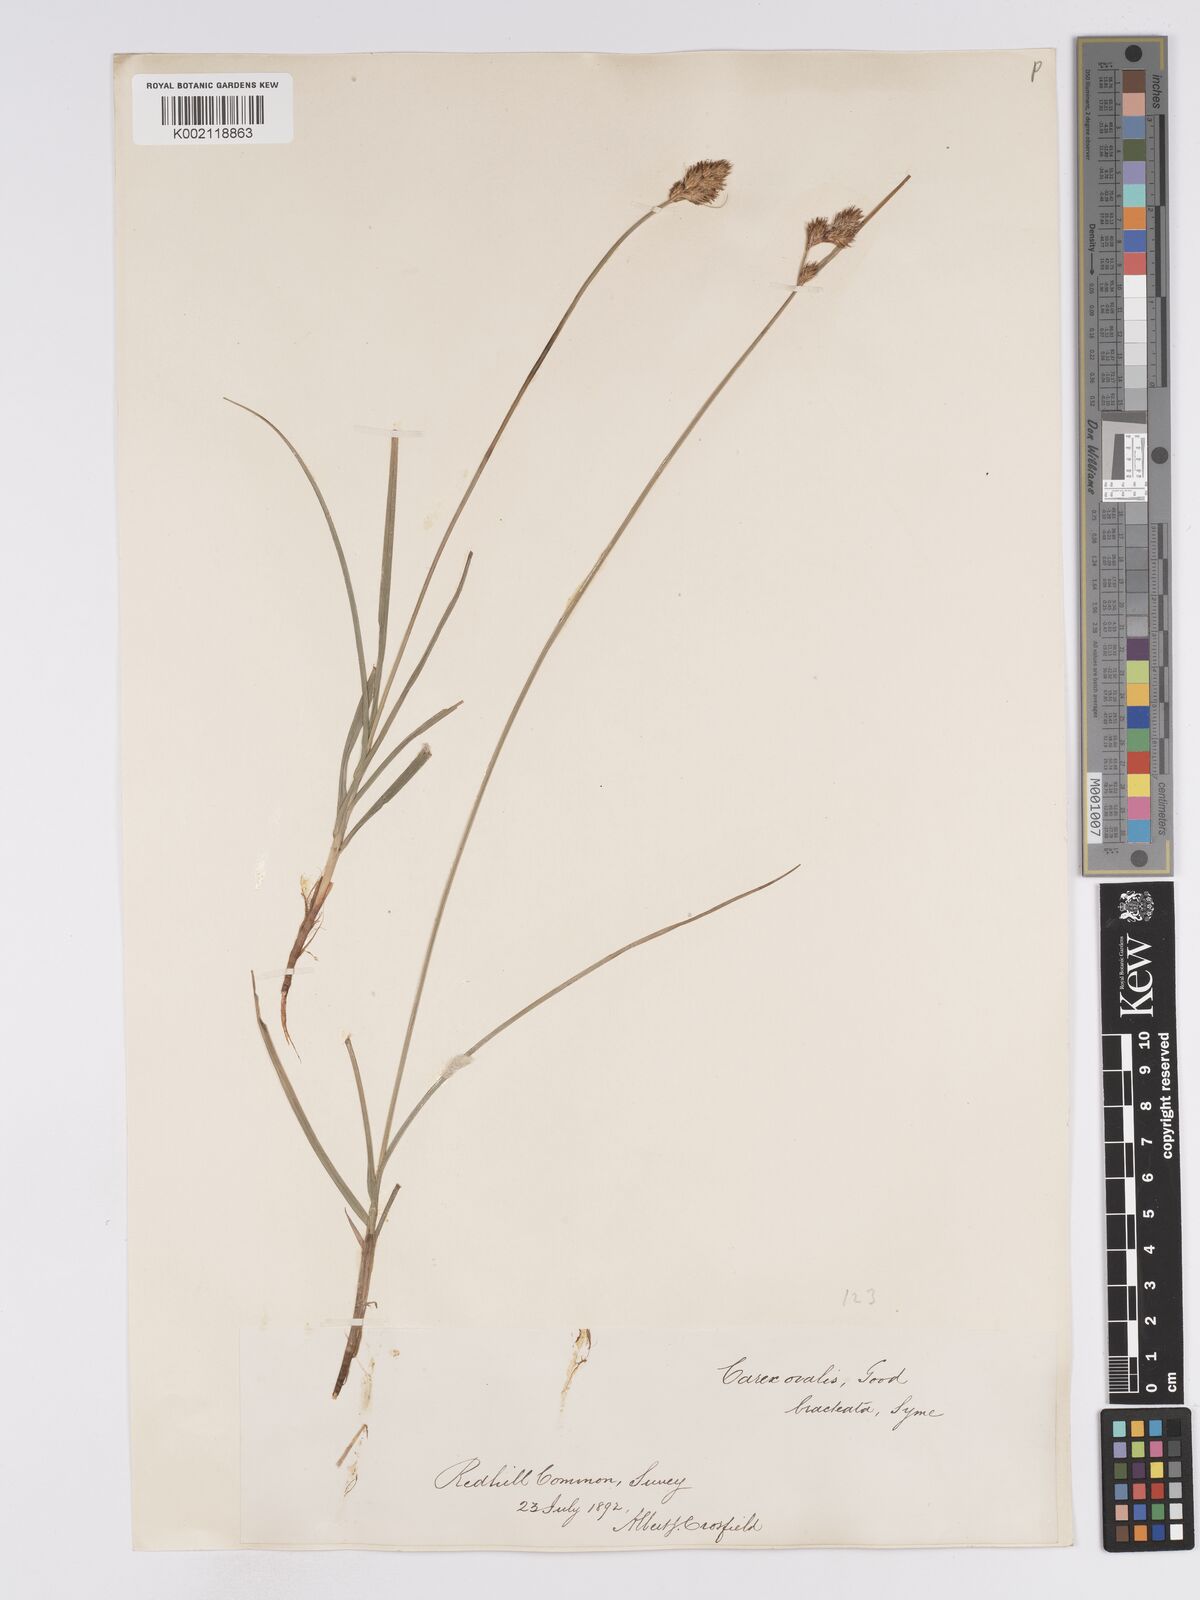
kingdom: Plantae
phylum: Tracheophyta
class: Liliopsida
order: Poales
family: Cyperaceae
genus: Carex
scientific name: Carex leporina
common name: Oval sedge
